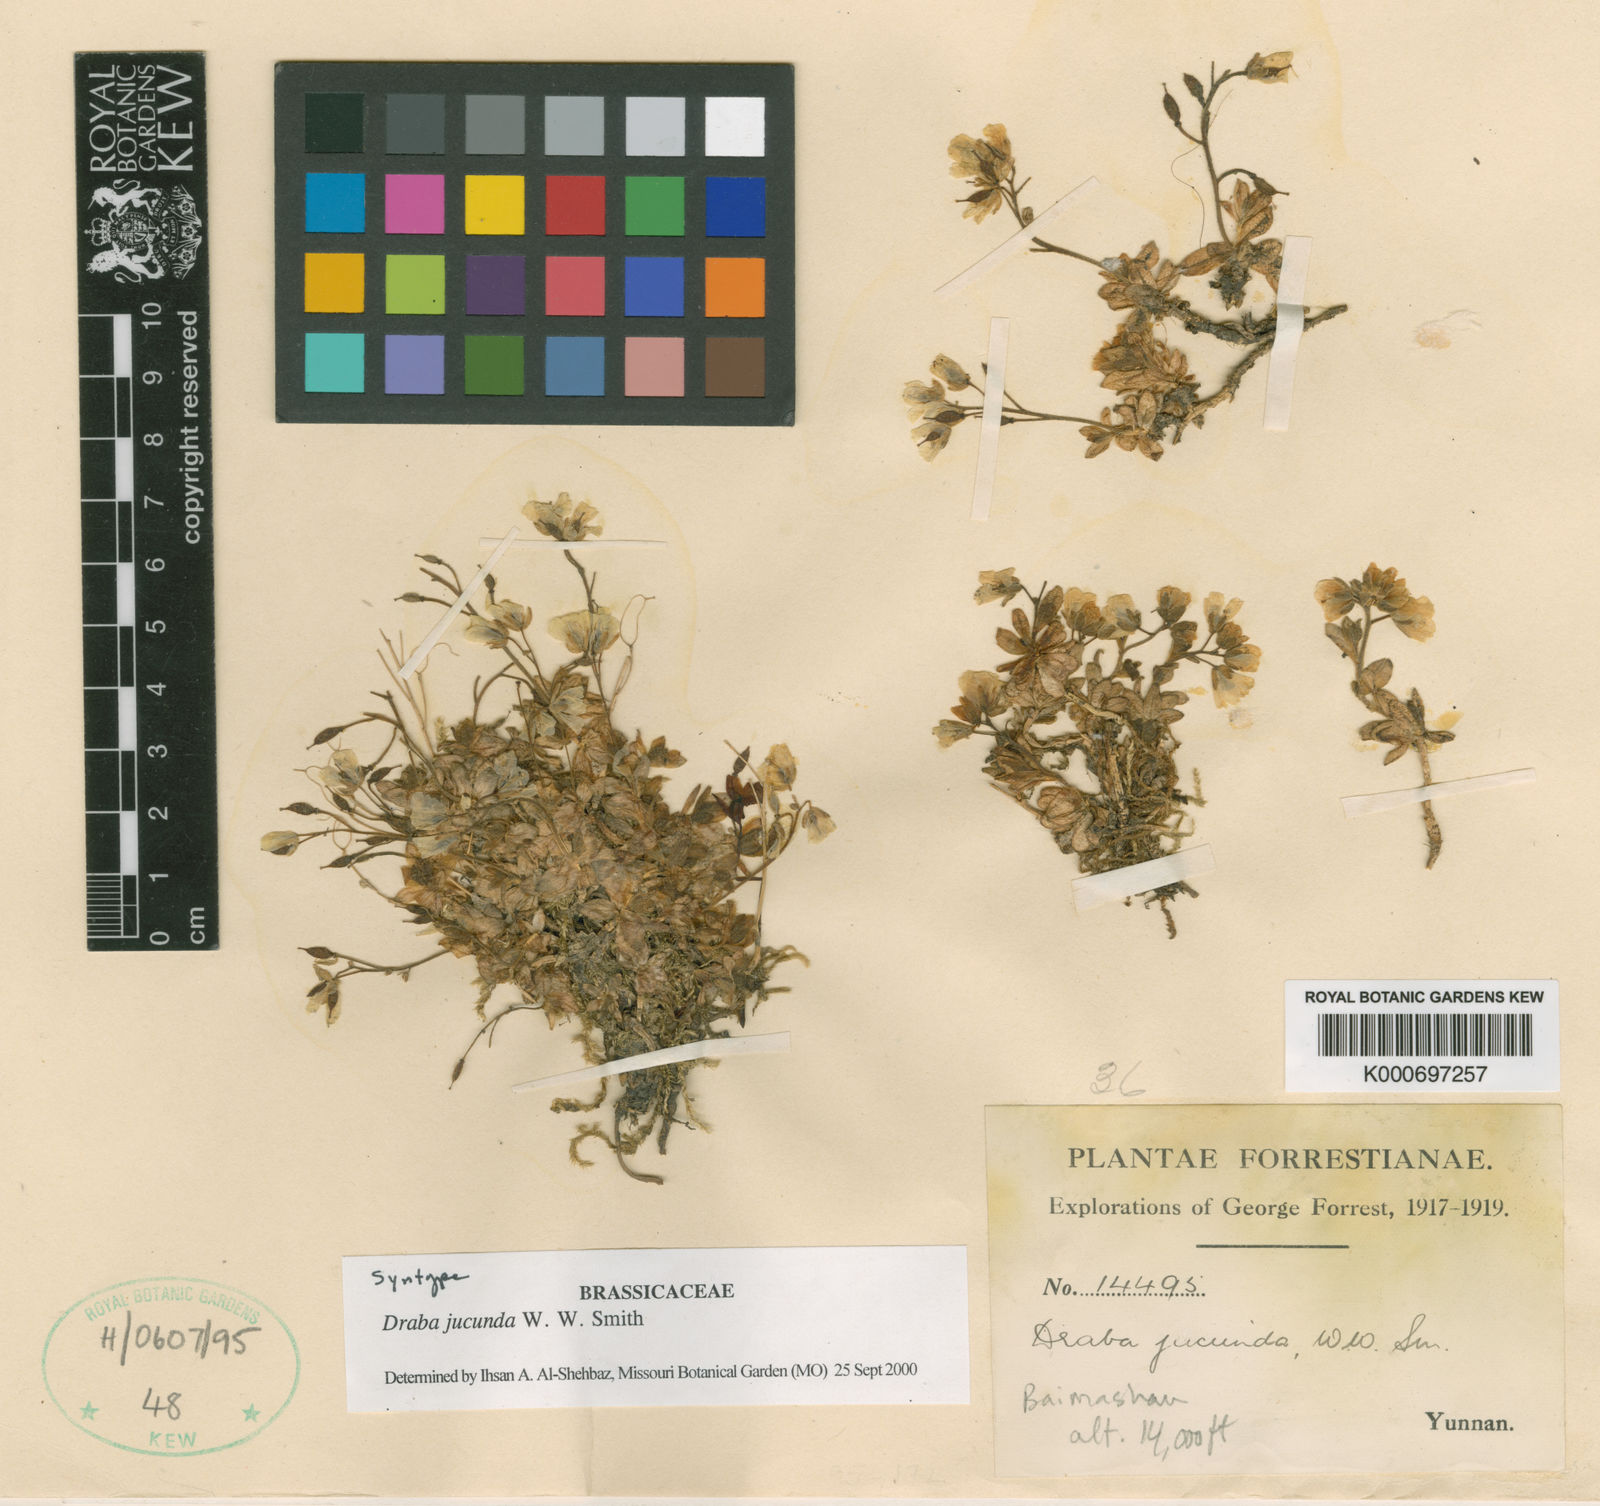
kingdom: Plantae
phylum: Tracheophyta
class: Magnoliopsida
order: Brassicales
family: Brassicaceae
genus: Draba
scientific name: Draba jucunda
